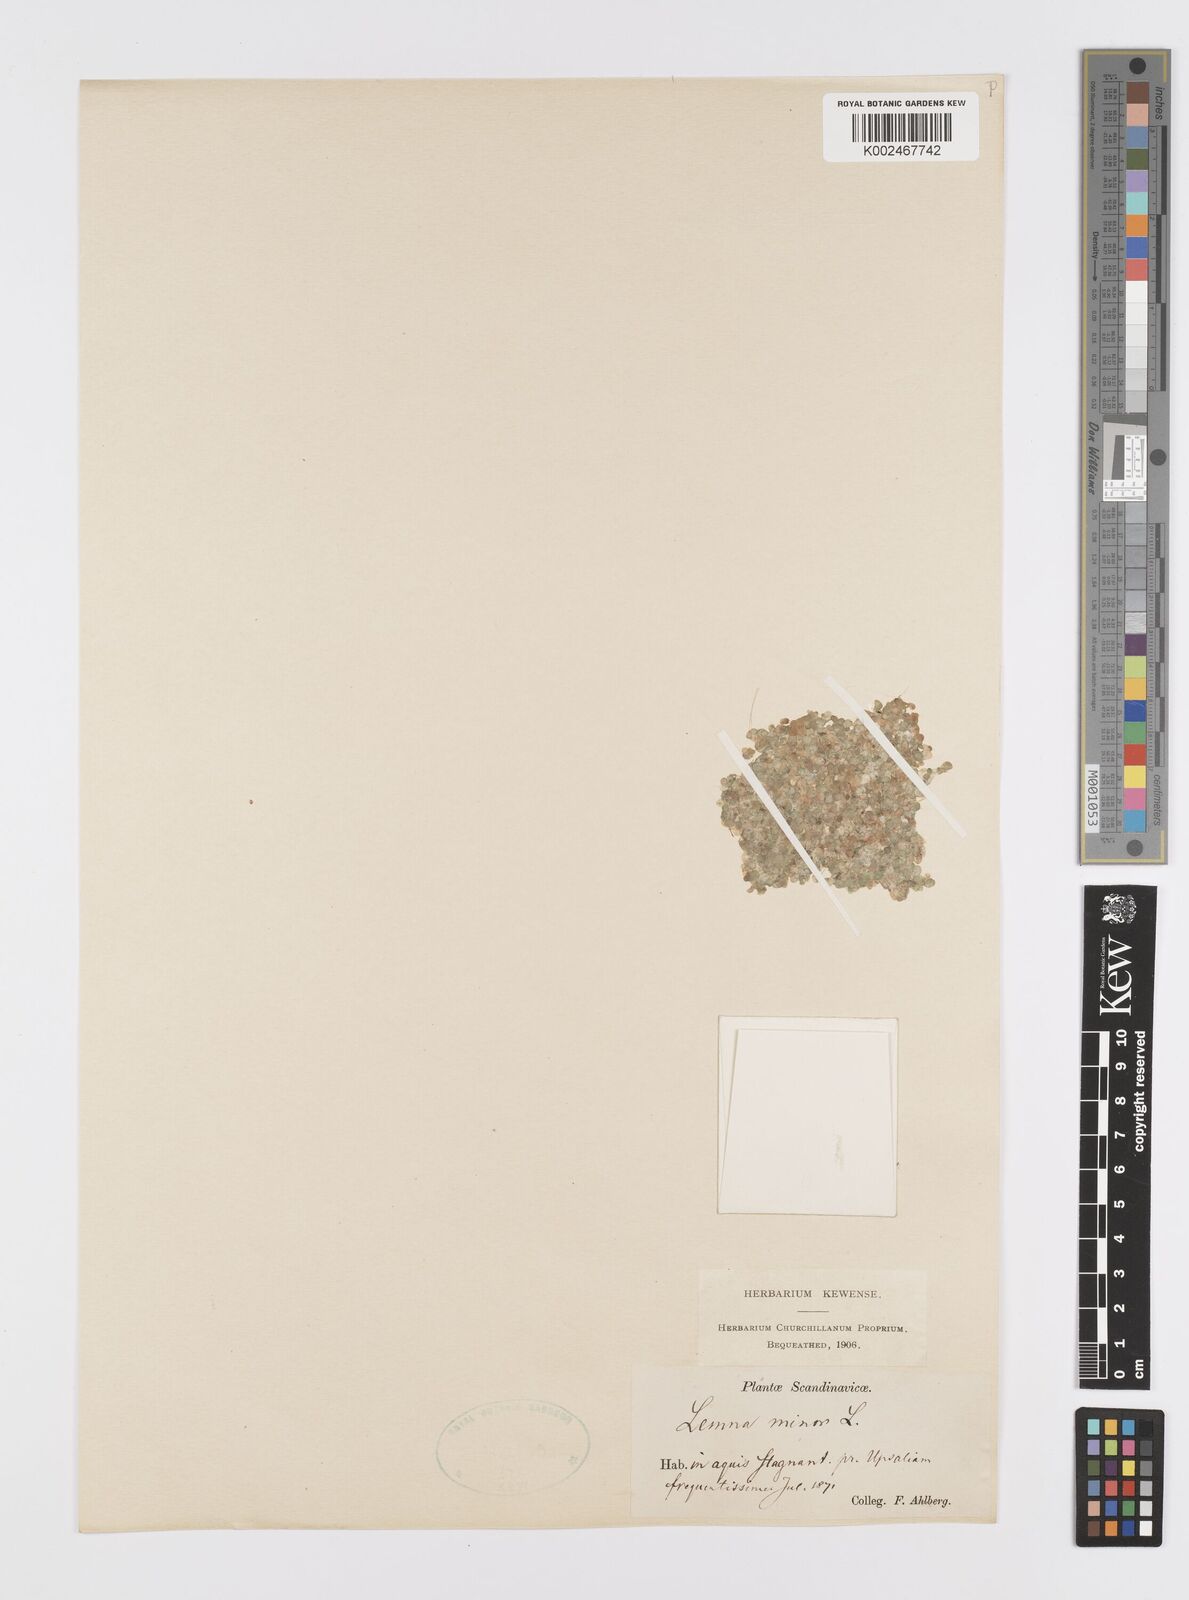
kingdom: Plantae
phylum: Tracheophyta
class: Liliopsida
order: Alismatales
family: Araceae
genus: Lemna
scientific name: Lemna minor
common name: Common duckweed
